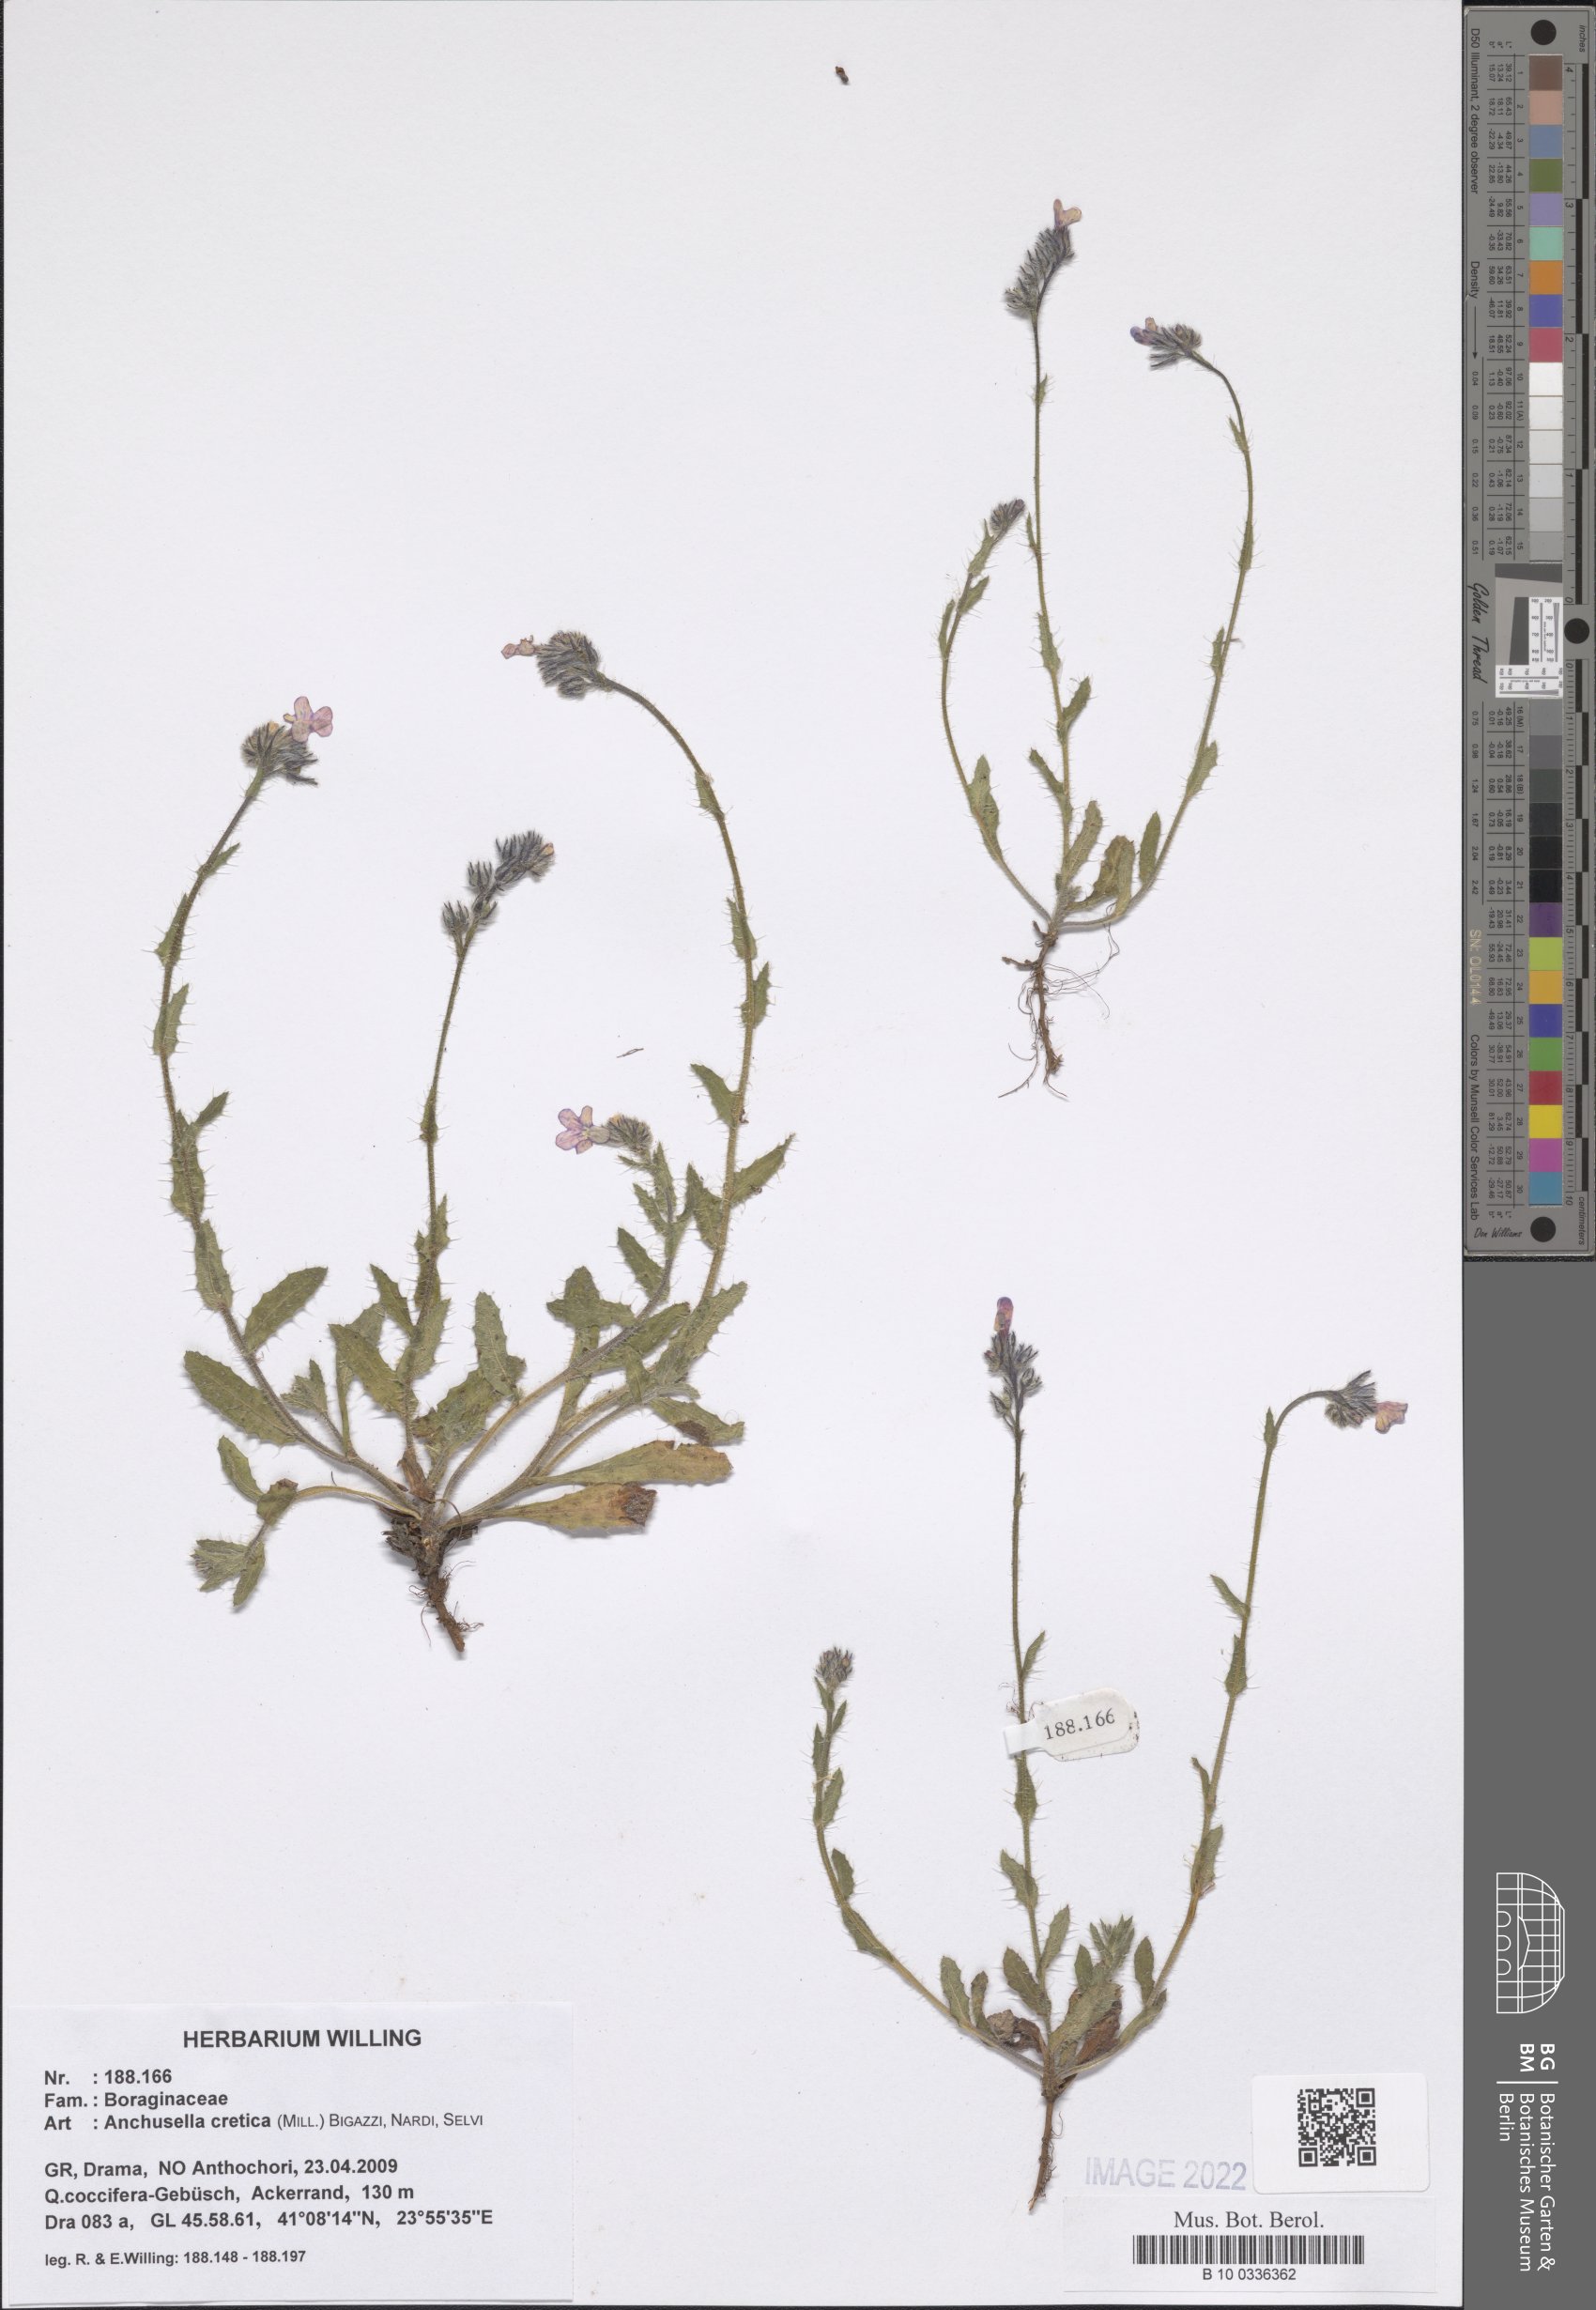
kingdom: Plantae
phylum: Tracheophyta
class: Magnoliopsida
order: Boraginales
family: Boraginaceae
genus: Anchusella
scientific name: Anchusella cretica
